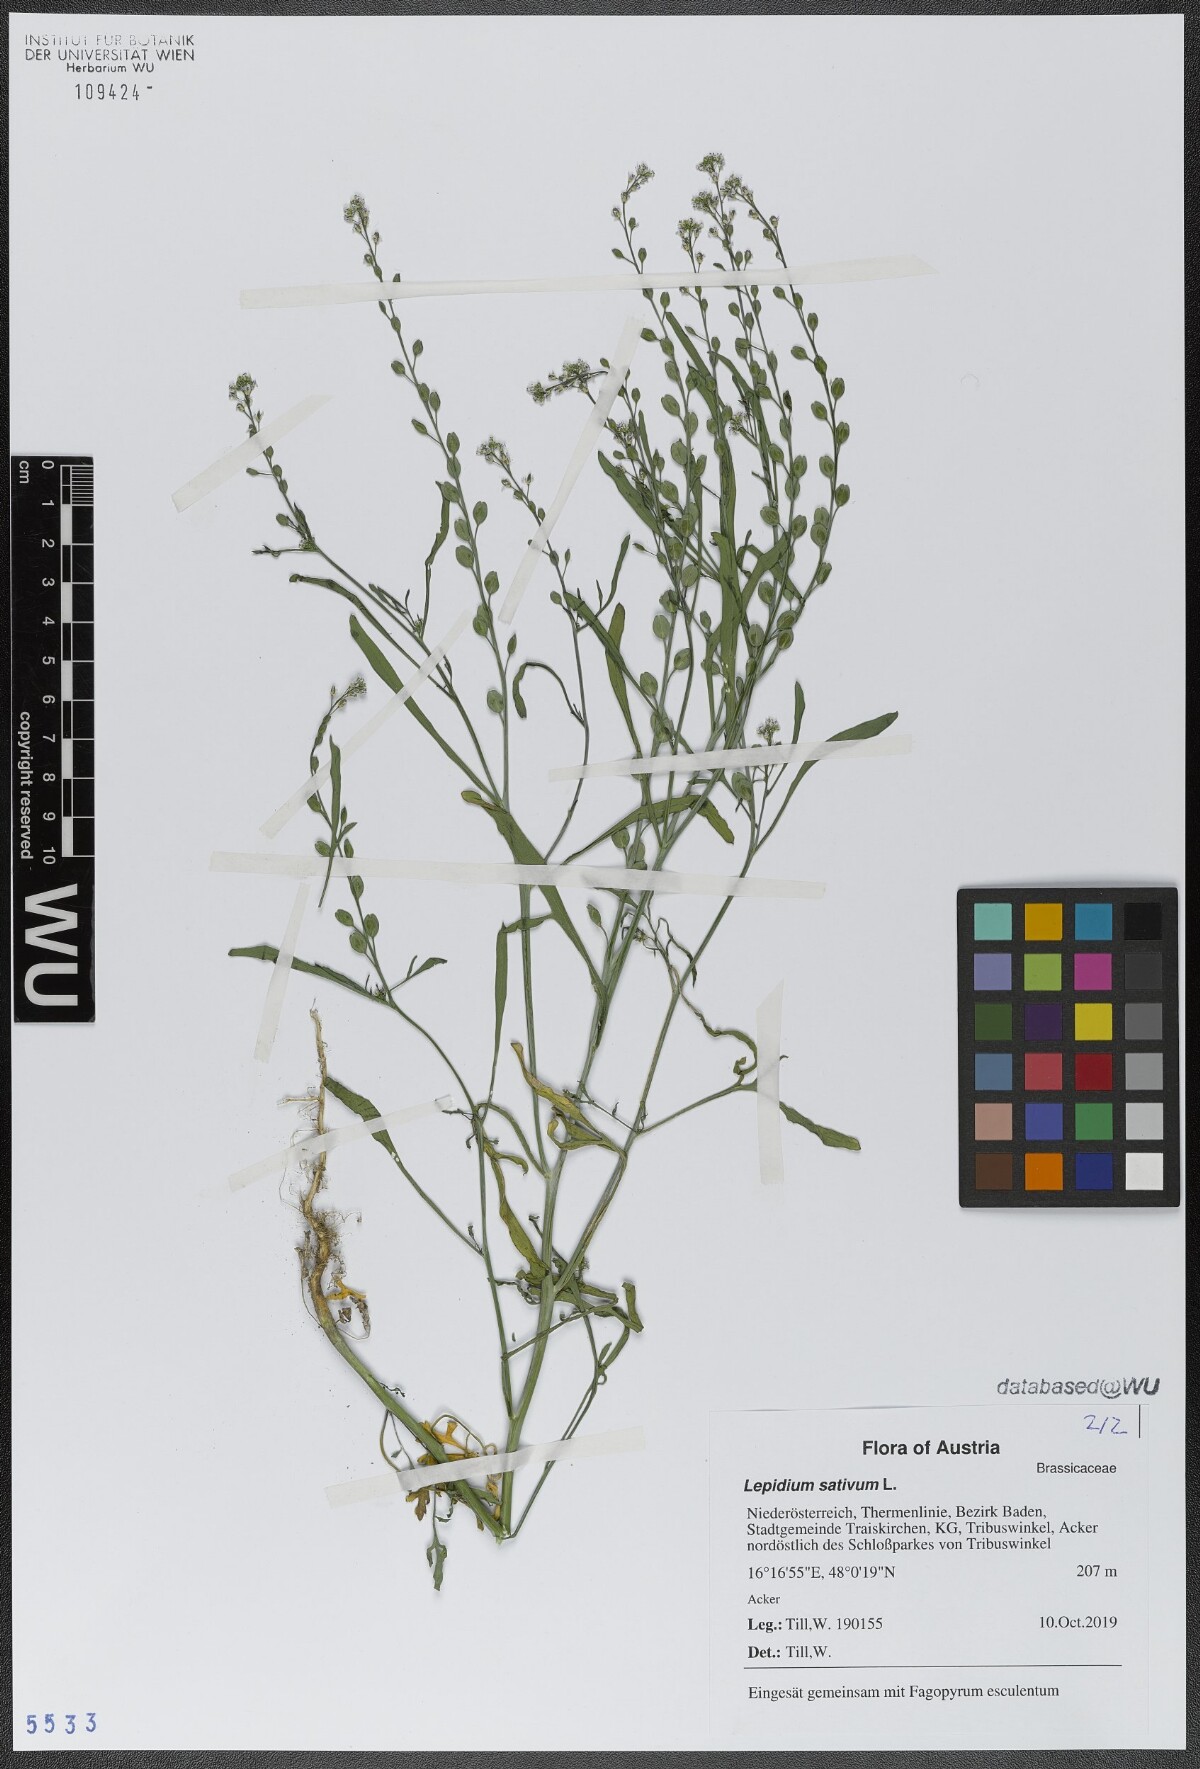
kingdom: Plantae
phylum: Tracheophyta
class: Magnoliopsida
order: Brassicales
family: Brassicaceae
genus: Lepidium
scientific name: Lepidium sativum
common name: Garden cress
